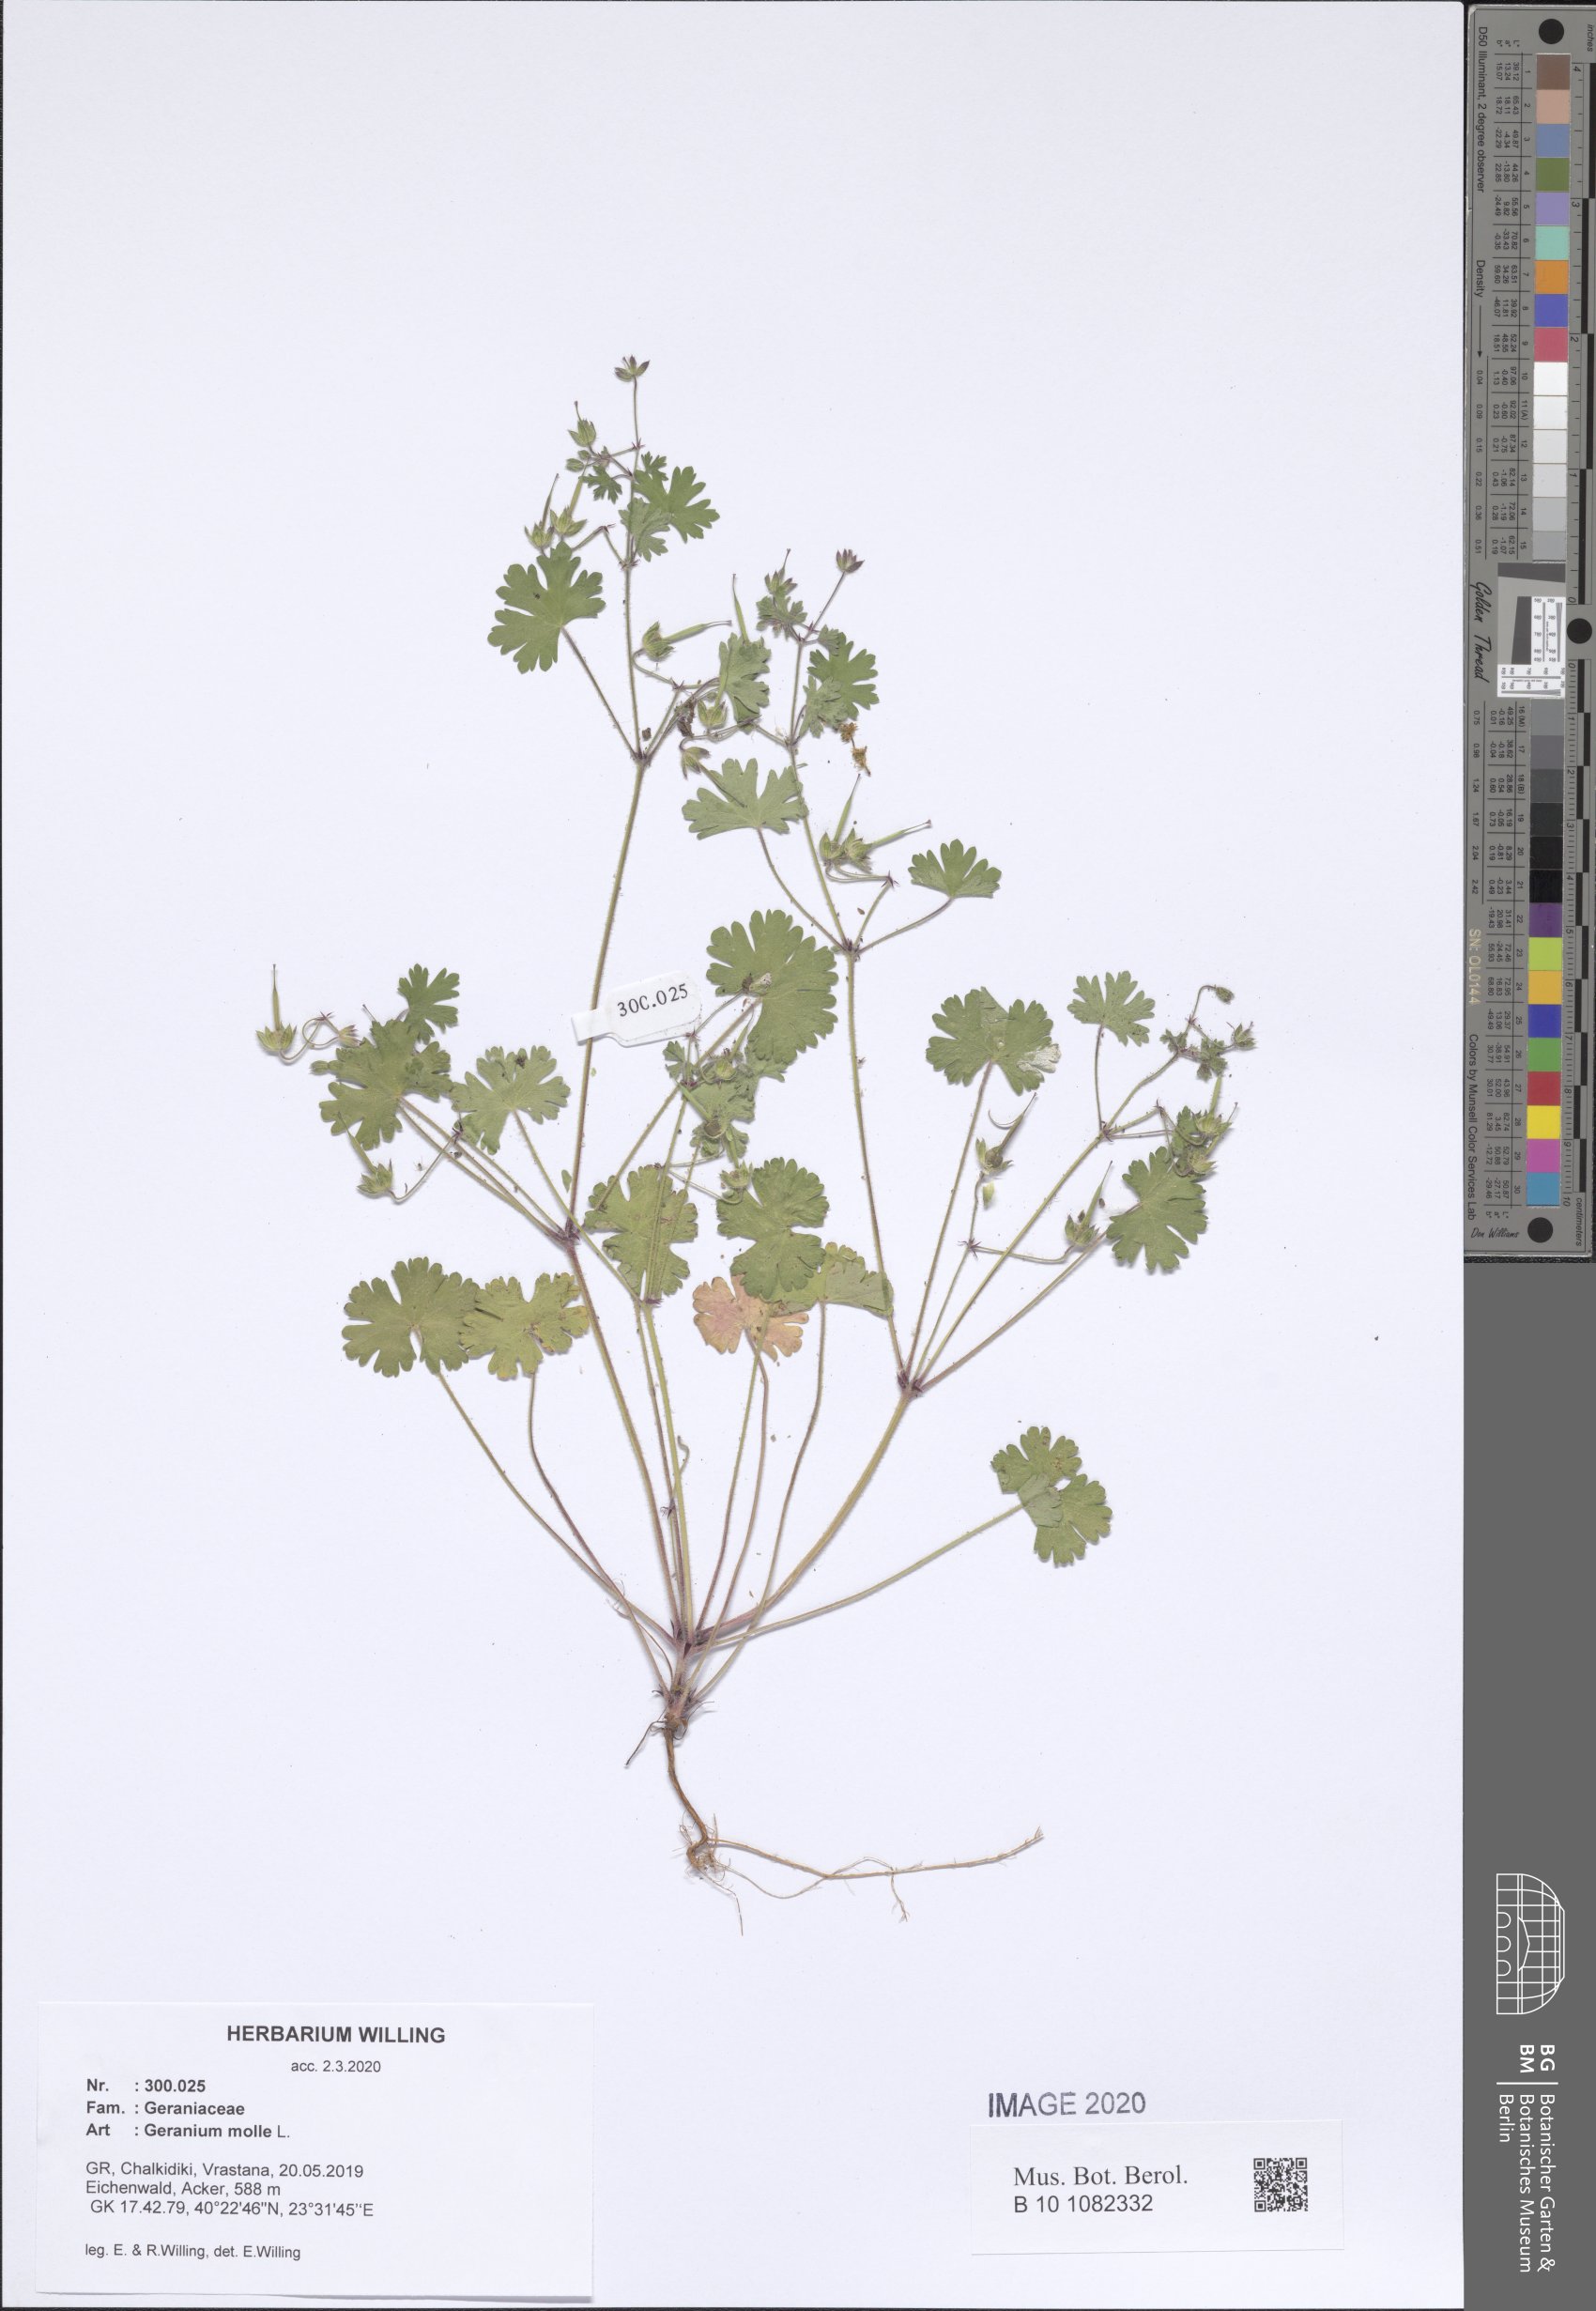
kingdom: Plantae
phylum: Tracheophyta
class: Magnoliopsida
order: Geraniales
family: Geraniaceae
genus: Geranium
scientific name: Geranium molle
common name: Dove's-foot crane's-bill
